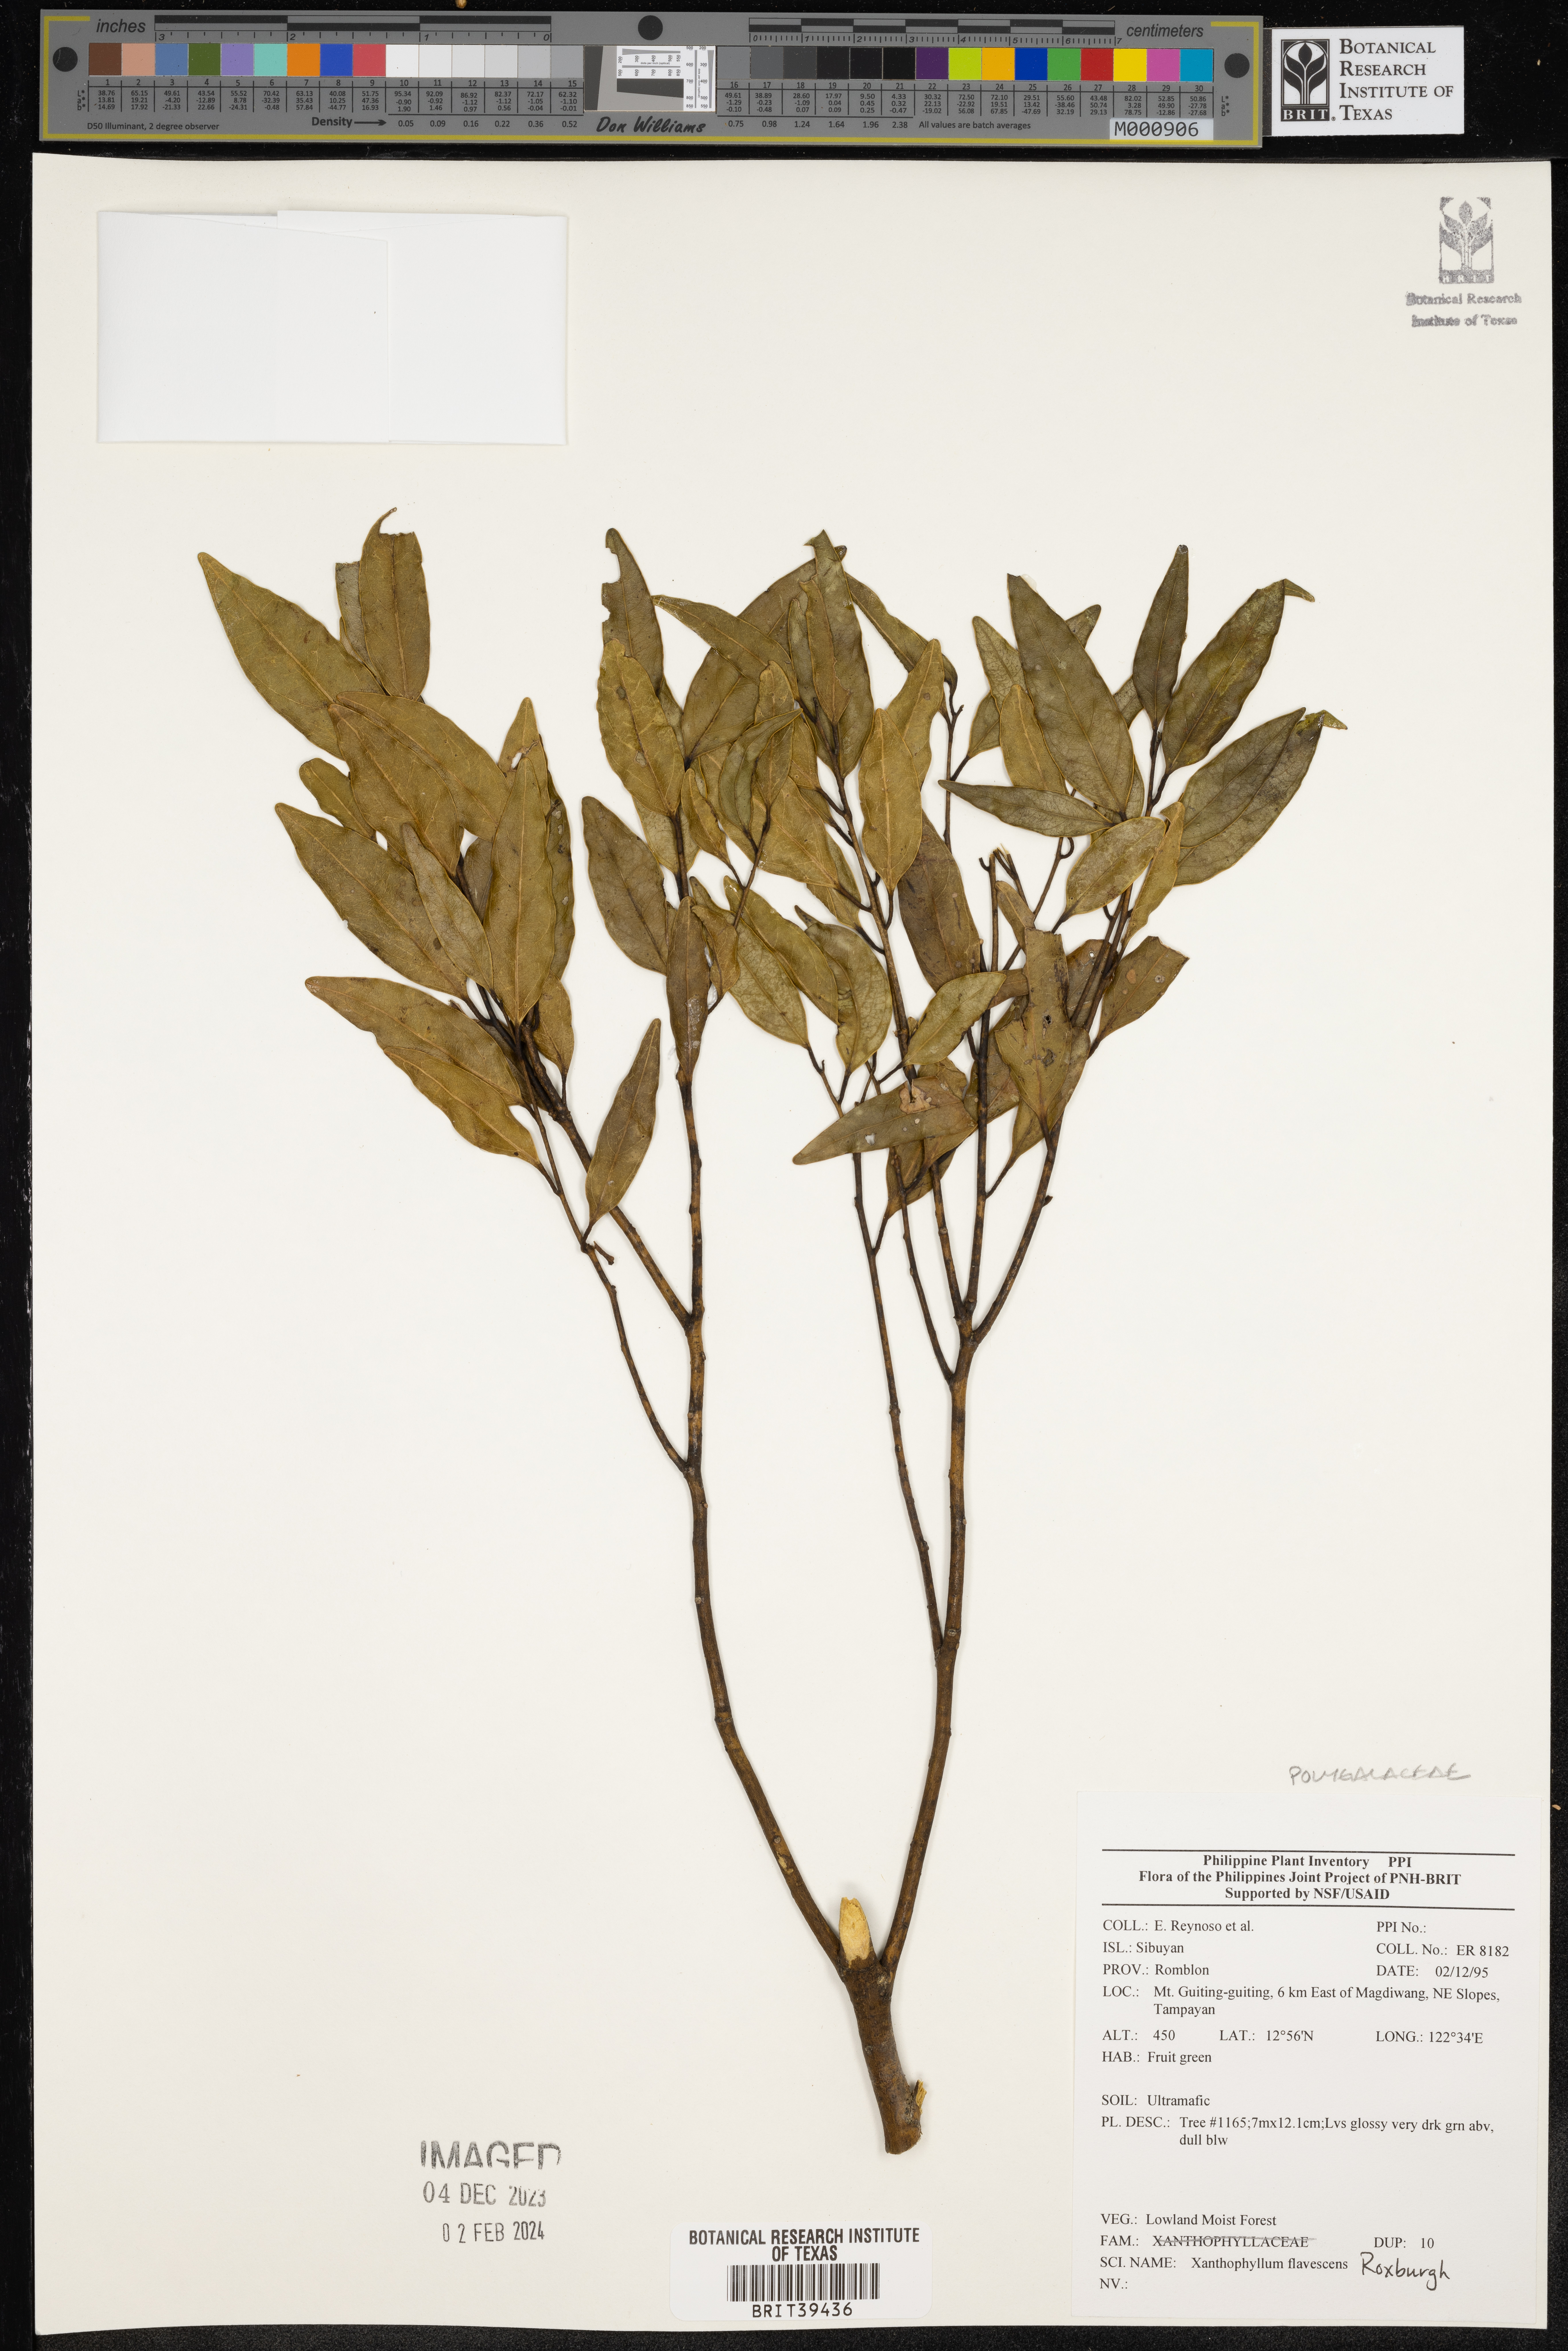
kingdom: Plantae
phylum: Tracheophyta
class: Magnoliopsida
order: Fabales
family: Polygalaceae
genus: Xanthophyllum
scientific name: Xanthophyllum flavescens
